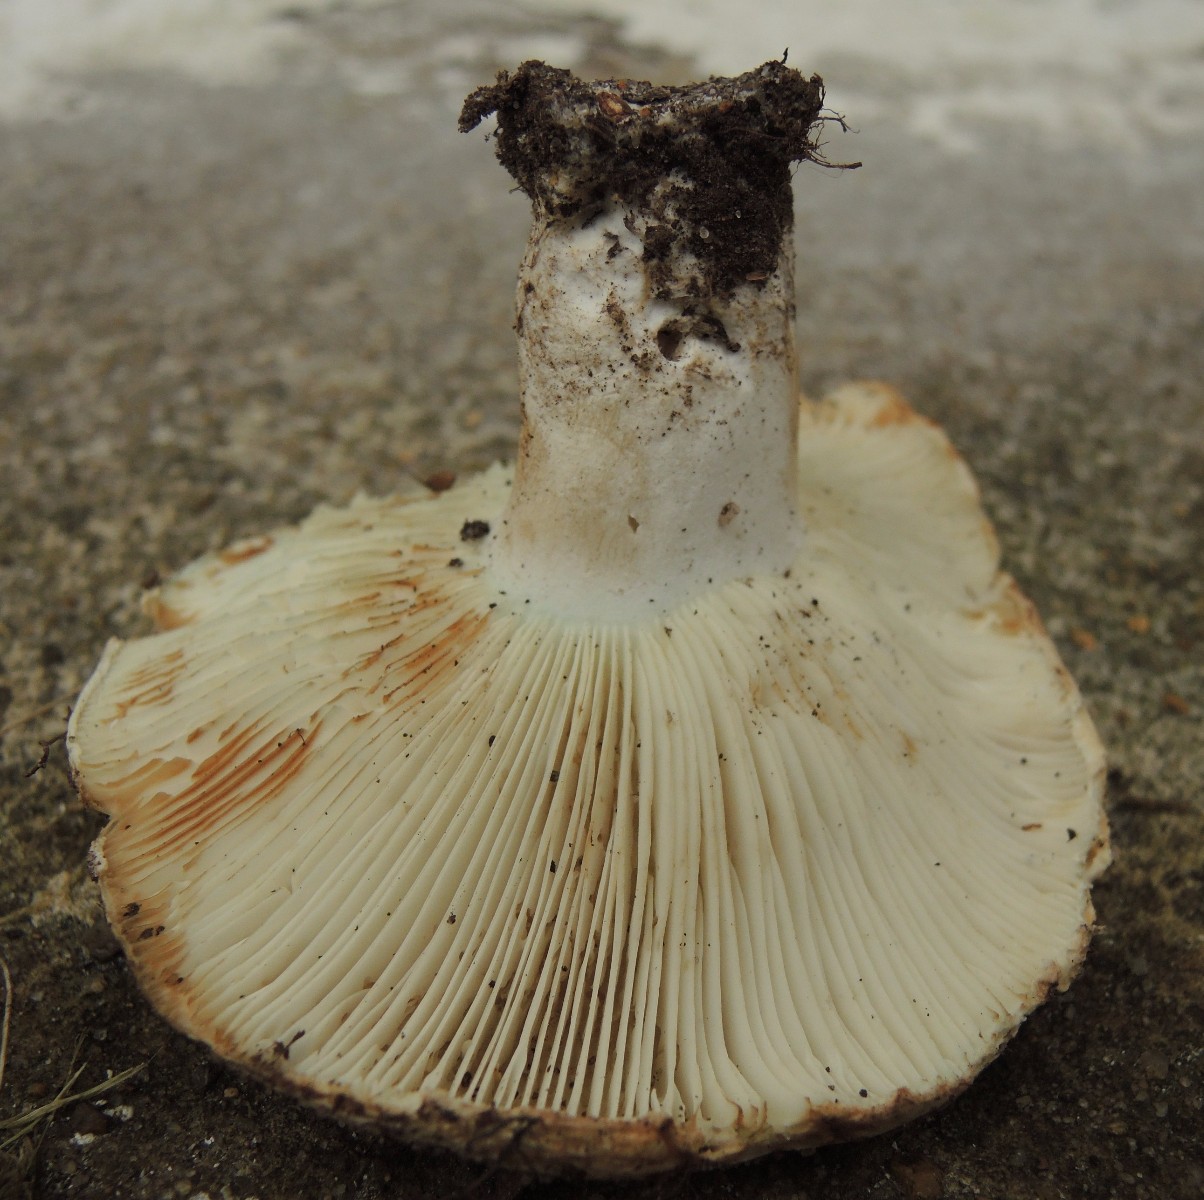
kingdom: Fungi
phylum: Basidiomycota
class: Agaricomycetes
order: Russulales
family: Russulaceae
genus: Russula
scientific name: Russula chloroides
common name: grønhalset tragt-skørhat
